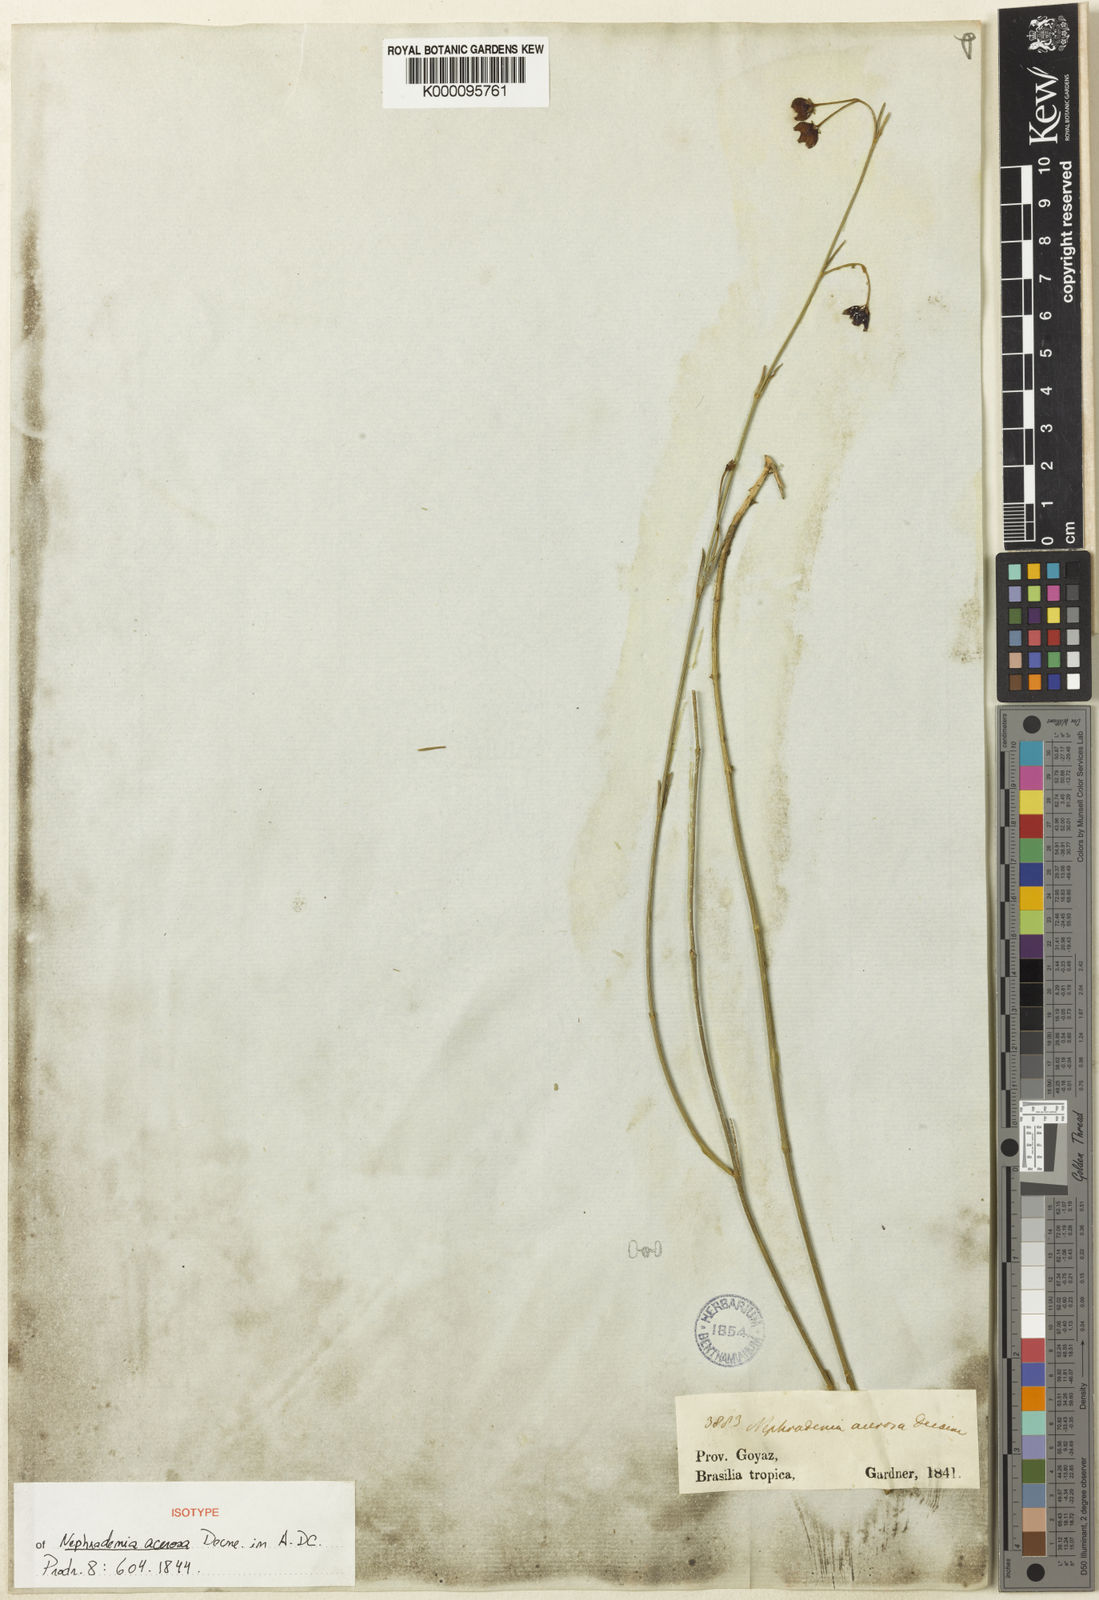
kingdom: Plantae
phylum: Tracheophyta
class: Magnoliopsida
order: Gentianales
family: Apocynaceae
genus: Nephradenia
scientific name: Nephradenia acerosa
